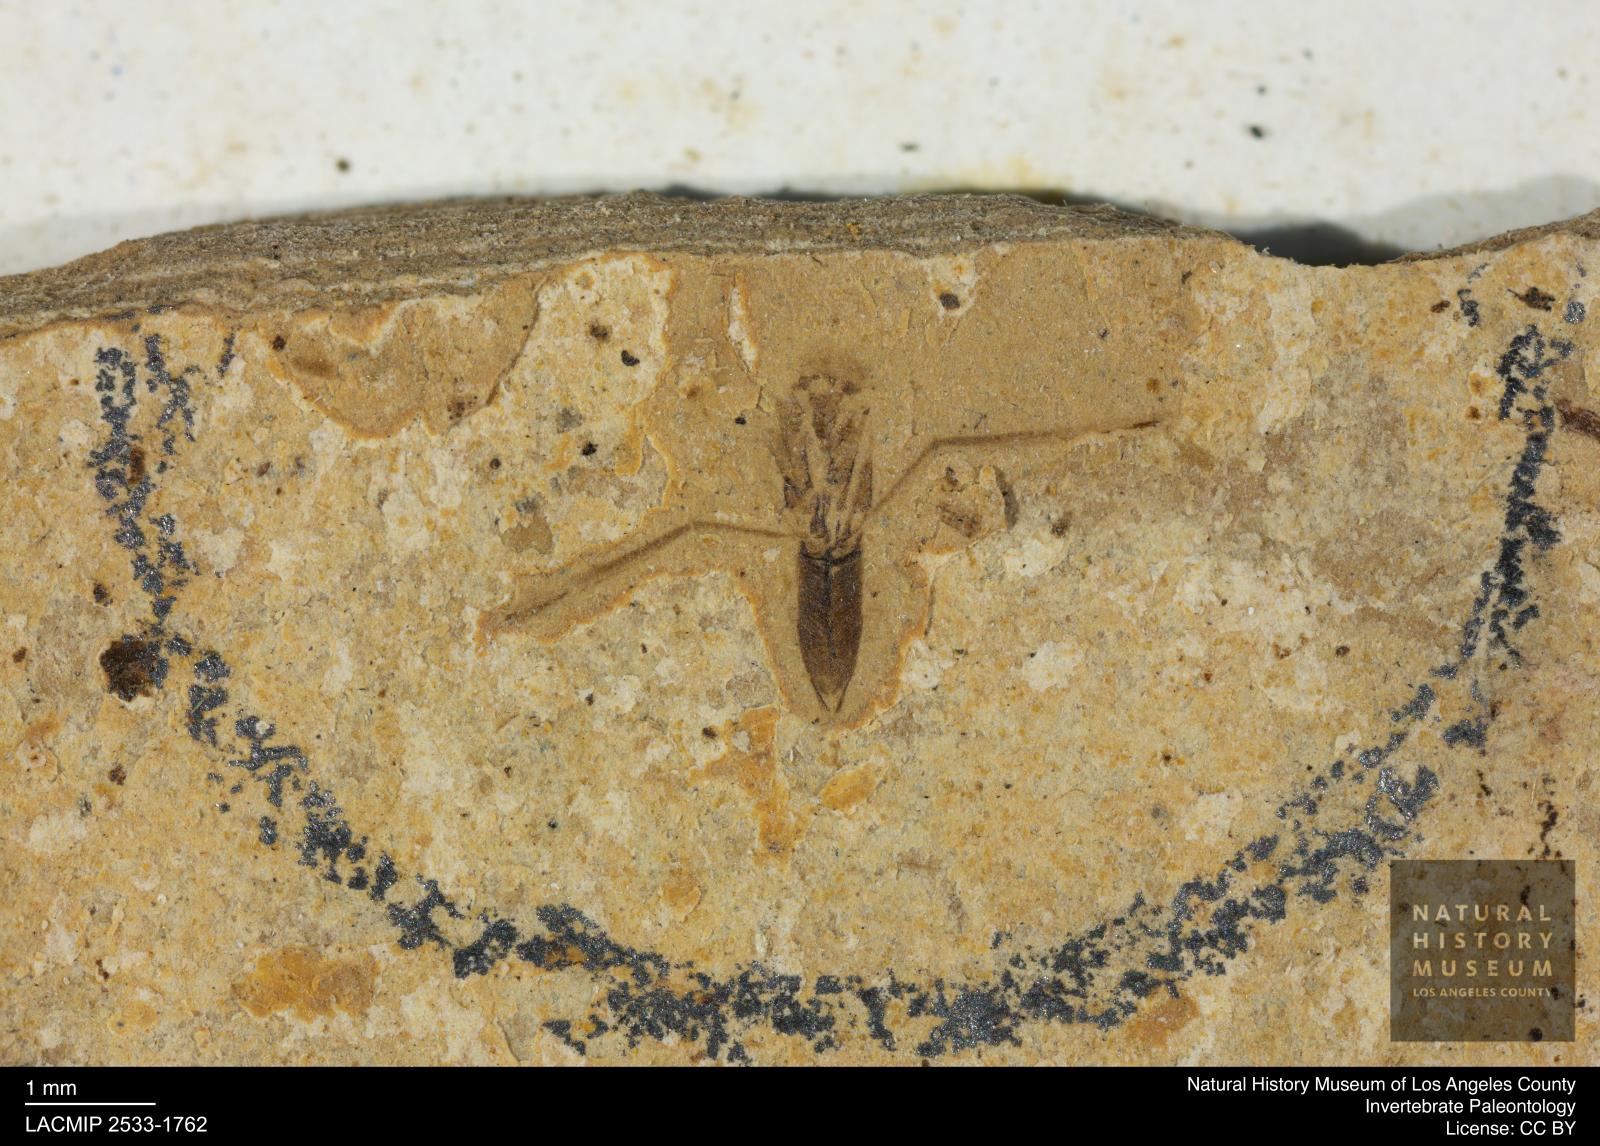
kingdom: Animalia
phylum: Arthropoda
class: Insecta
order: Hemiptera
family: Notonectidae
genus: Notonecta
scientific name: Notonecta
